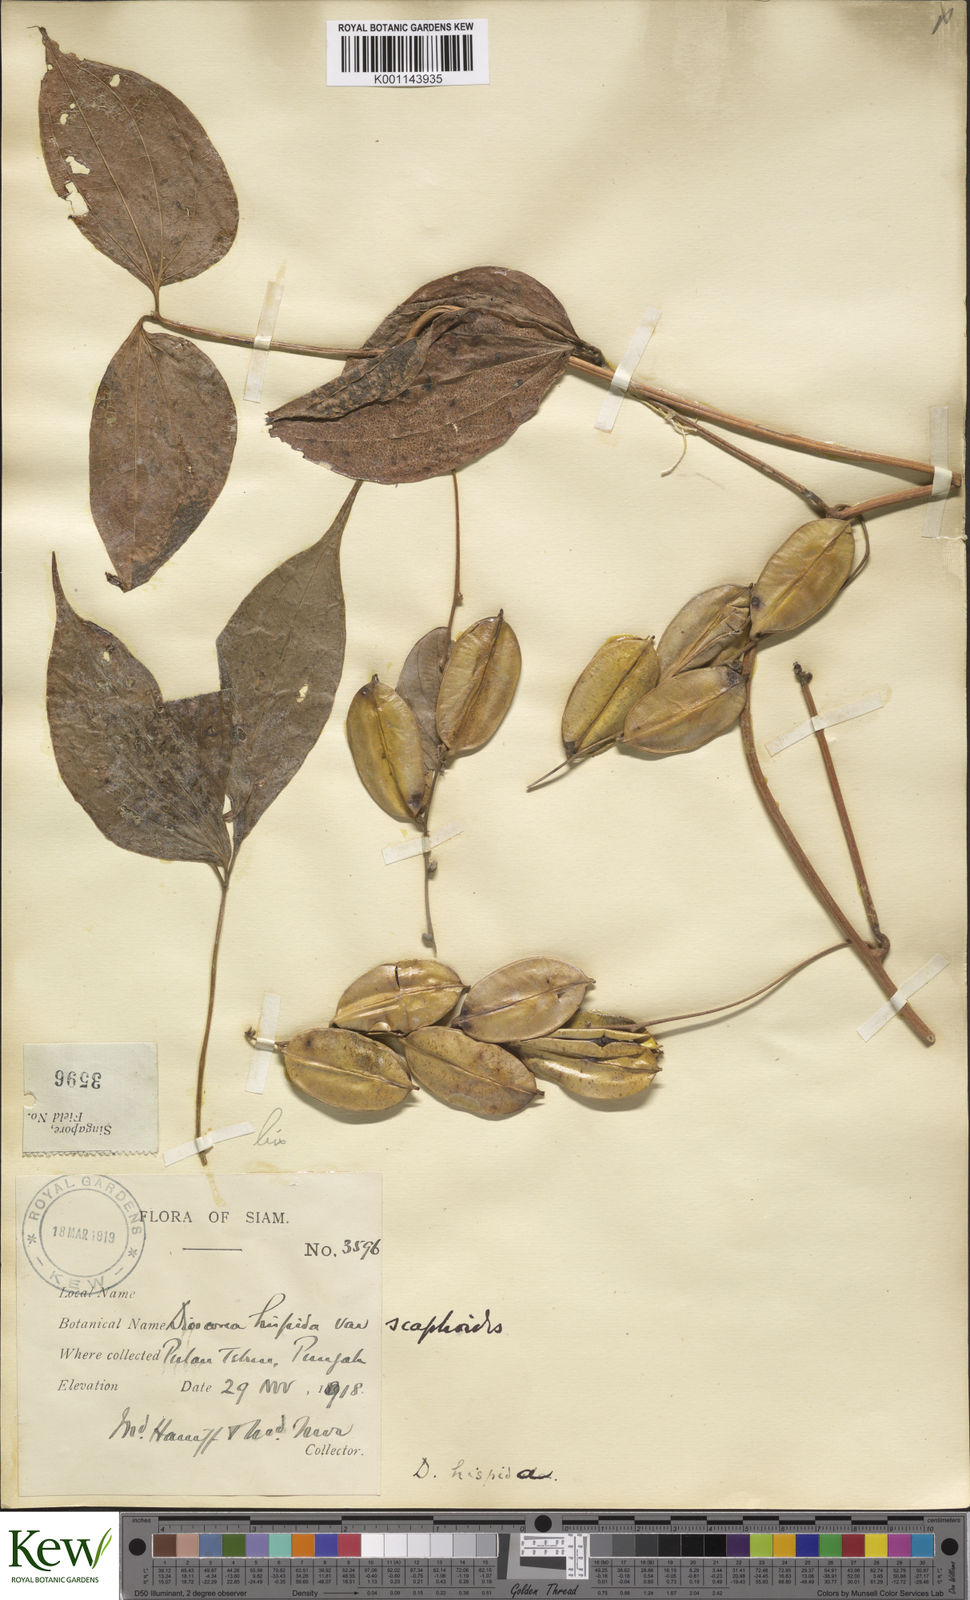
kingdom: Plantae
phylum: Tracheophyta
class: Liliopsida
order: Dioscoreales
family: Dioscoreaceae
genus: Dioscorea
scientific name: Dioscorea hispida
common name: Asiatic bitter yam
